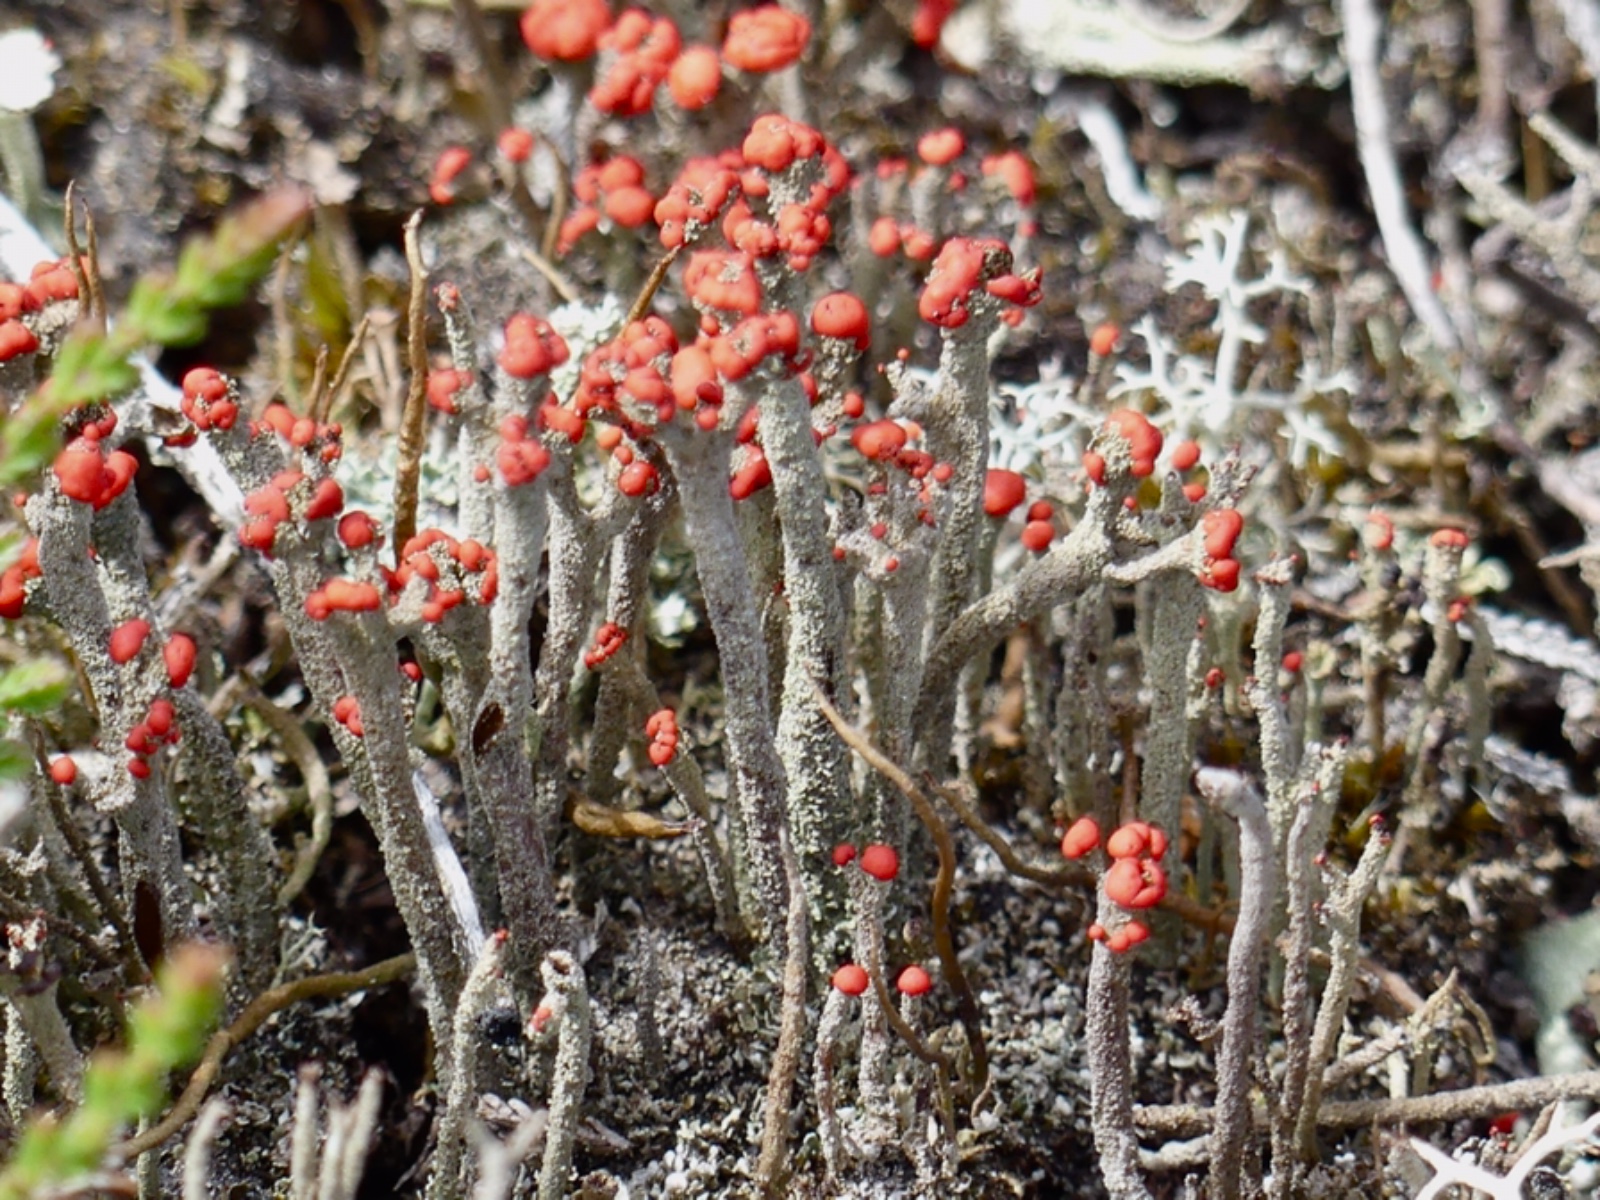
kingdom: Fungi
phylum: Ascomycota
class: Lecanoromycetes
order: Lecanorales
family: Cladoniaceae
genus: Cladonia
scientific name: Cladonia floerkeana
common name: lakrød bægerlav
